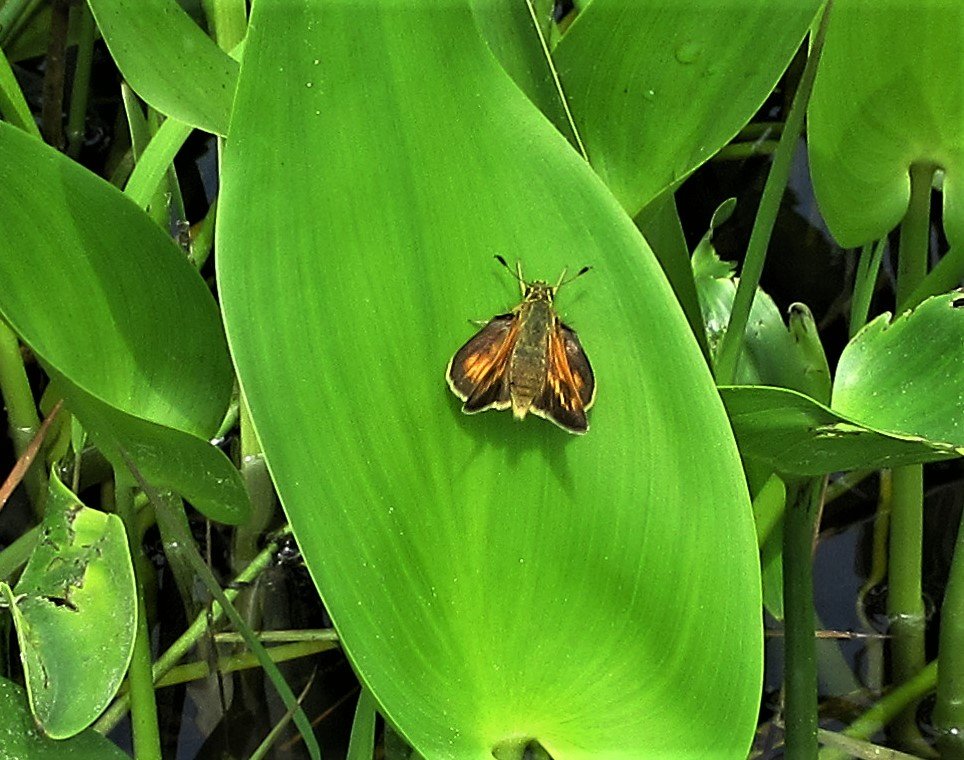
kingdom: Animalia
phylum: Arthropoda
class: Insecta
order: Lepidoptera
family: Hesperiidae
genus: Polites
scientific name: Polites
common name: Long Dash Skipper
